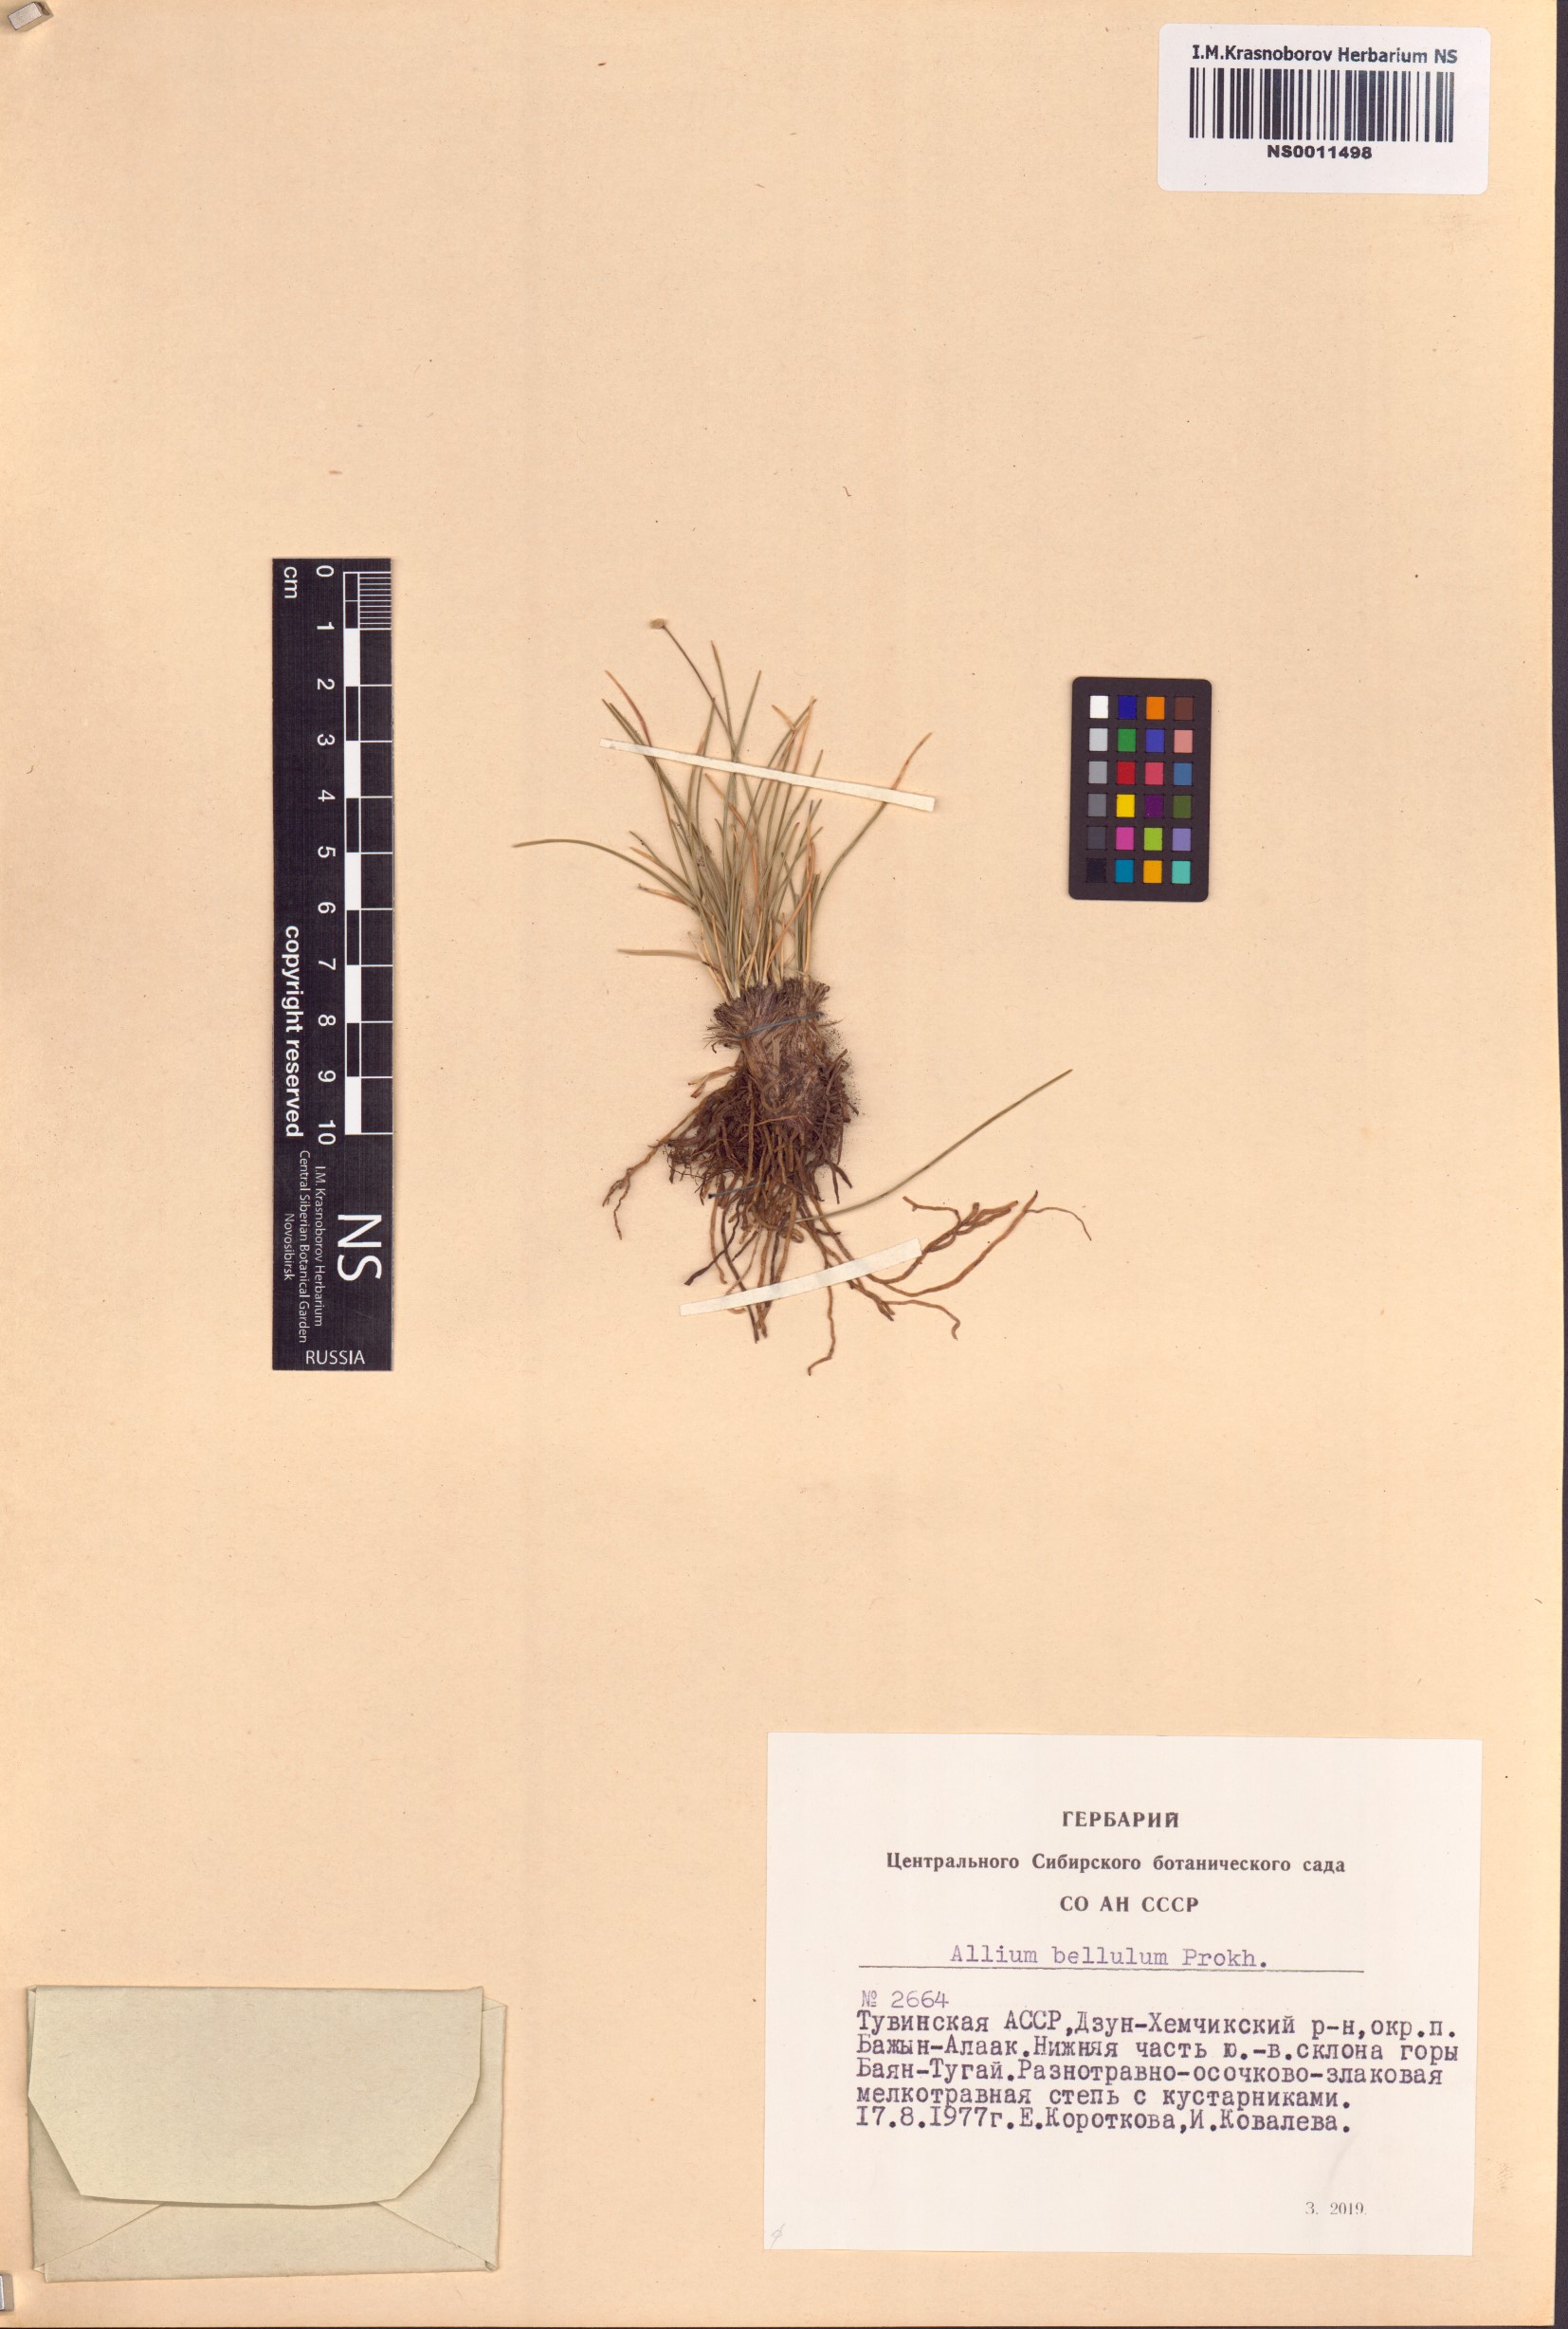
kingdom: Plantae
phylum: Tracheophyta
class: Liliopsida
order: Asparagales
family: Amaryllidaceae
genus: Allium
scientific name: Allium bellulum
